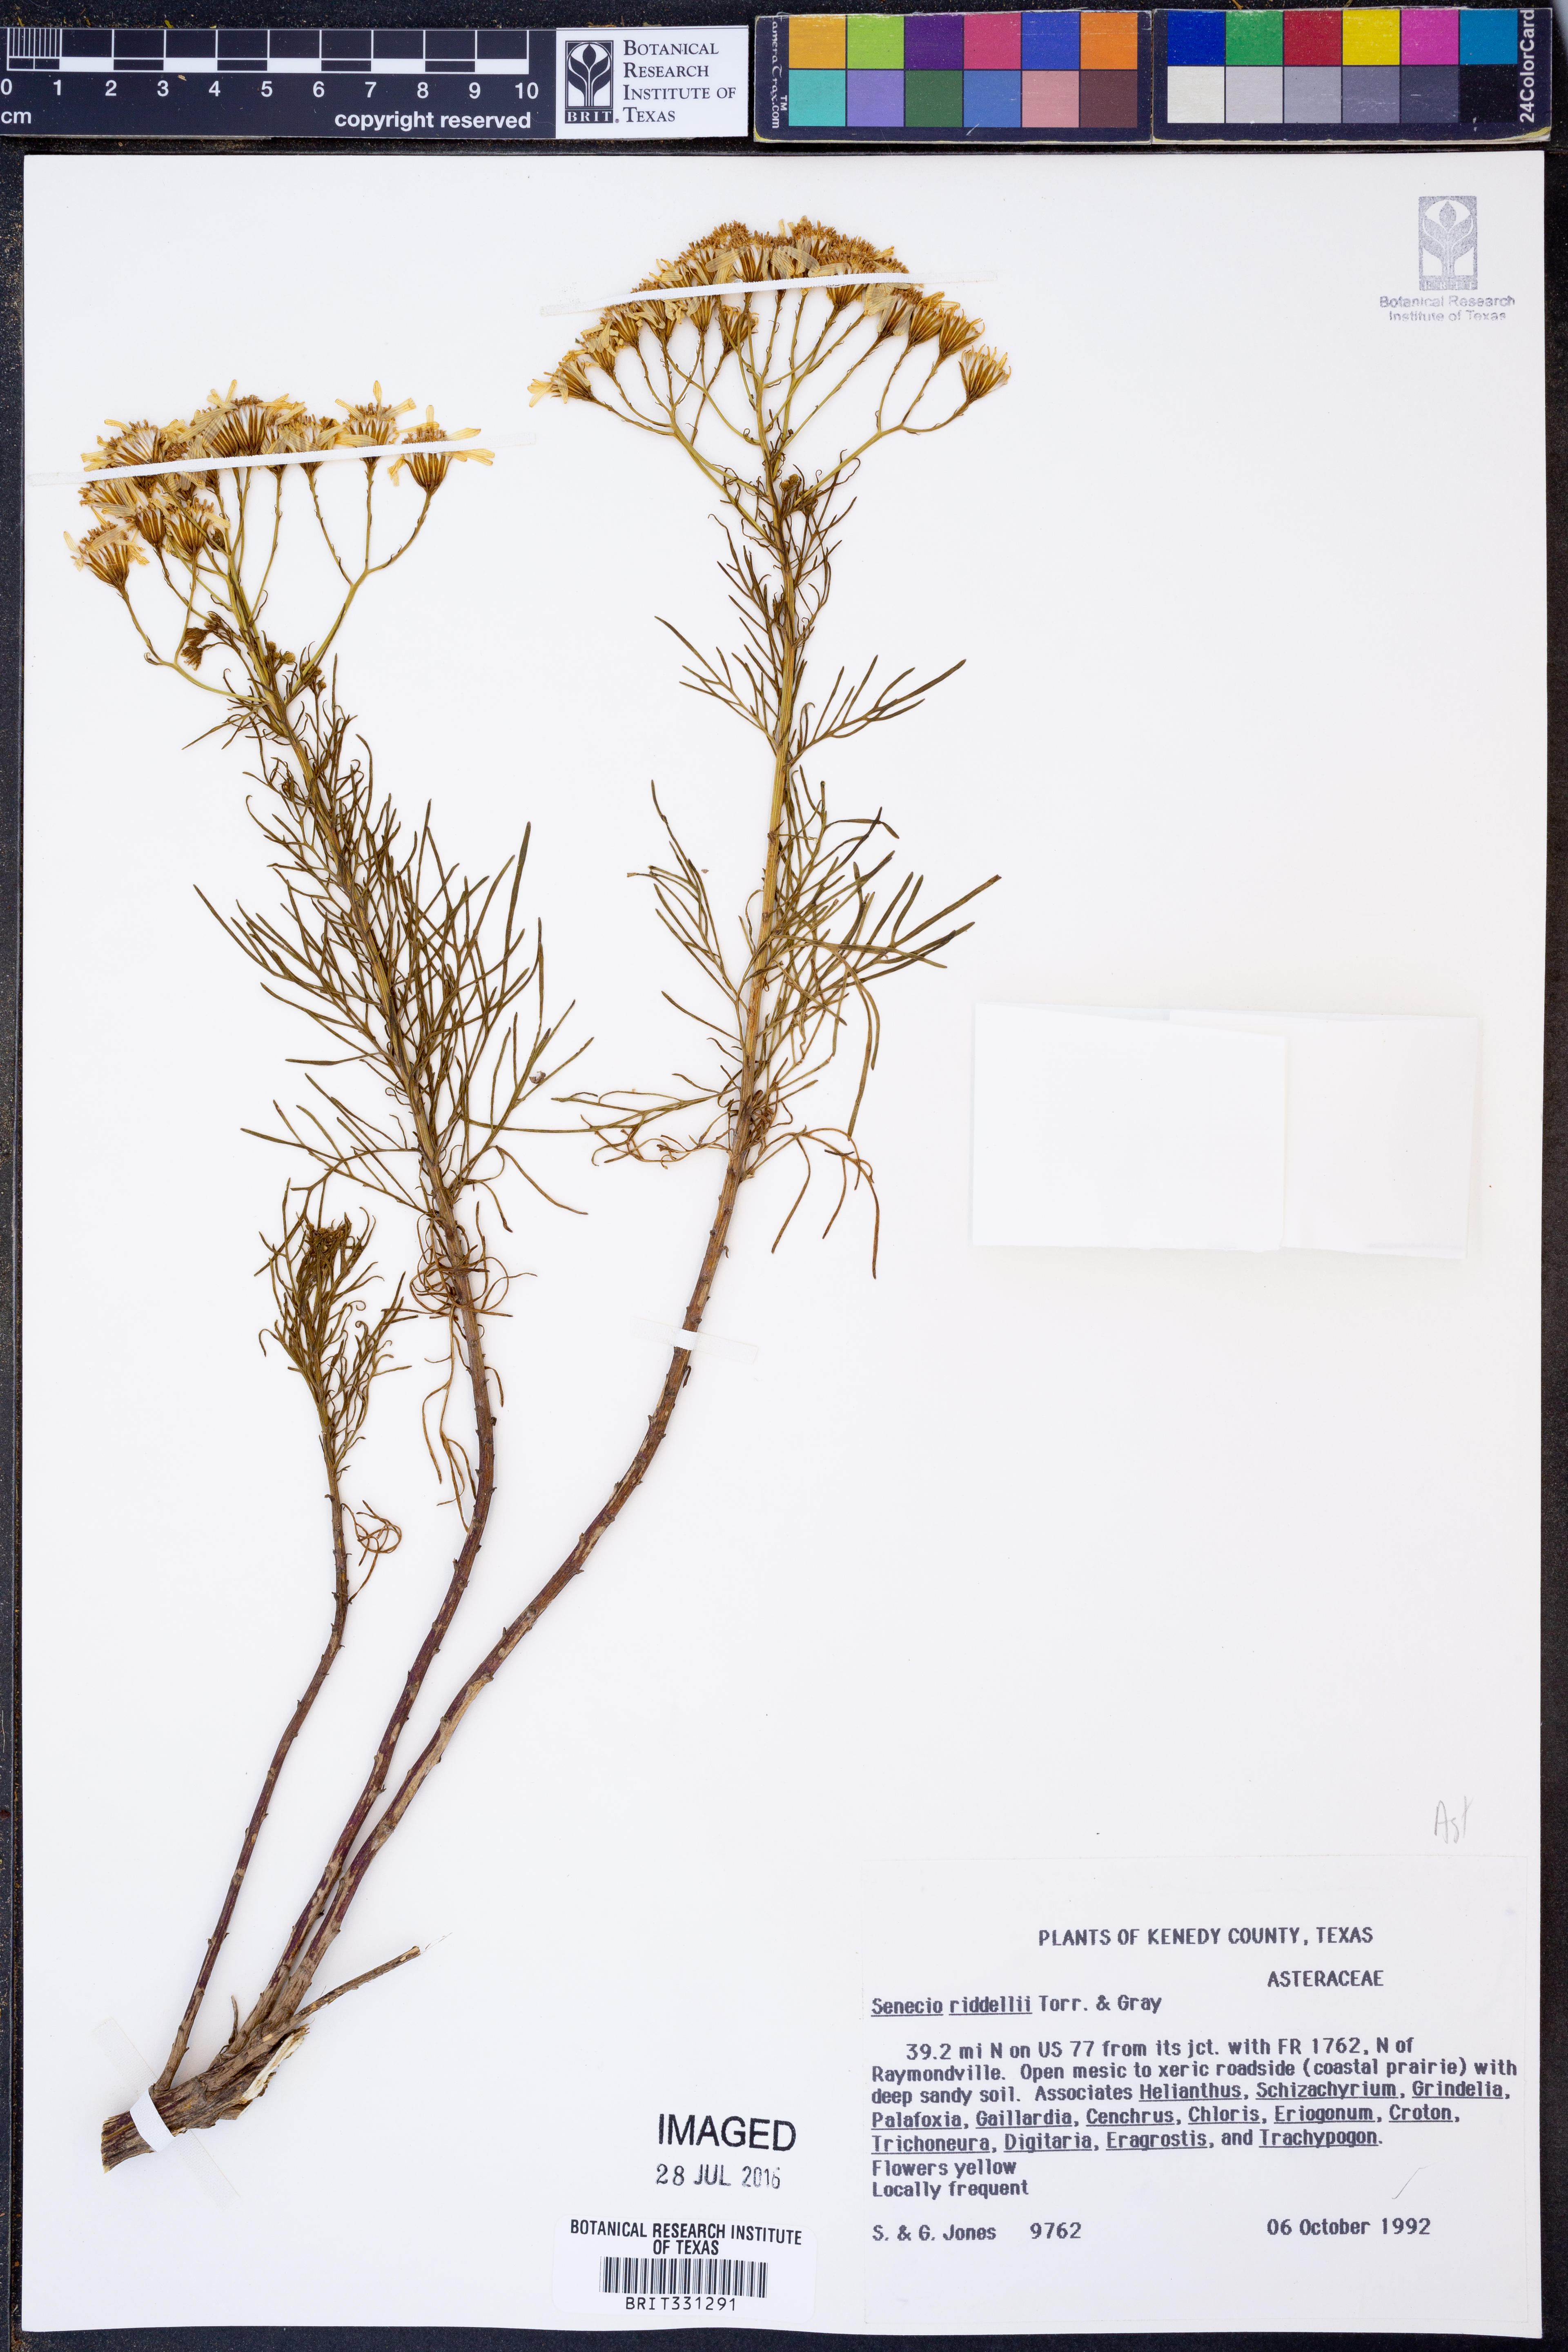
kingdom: Plantae
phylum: Tracheophyta
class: Magnoliopsida
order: Asterales
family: Asteraceae
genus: Senecio
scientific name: Senecio riddellii
